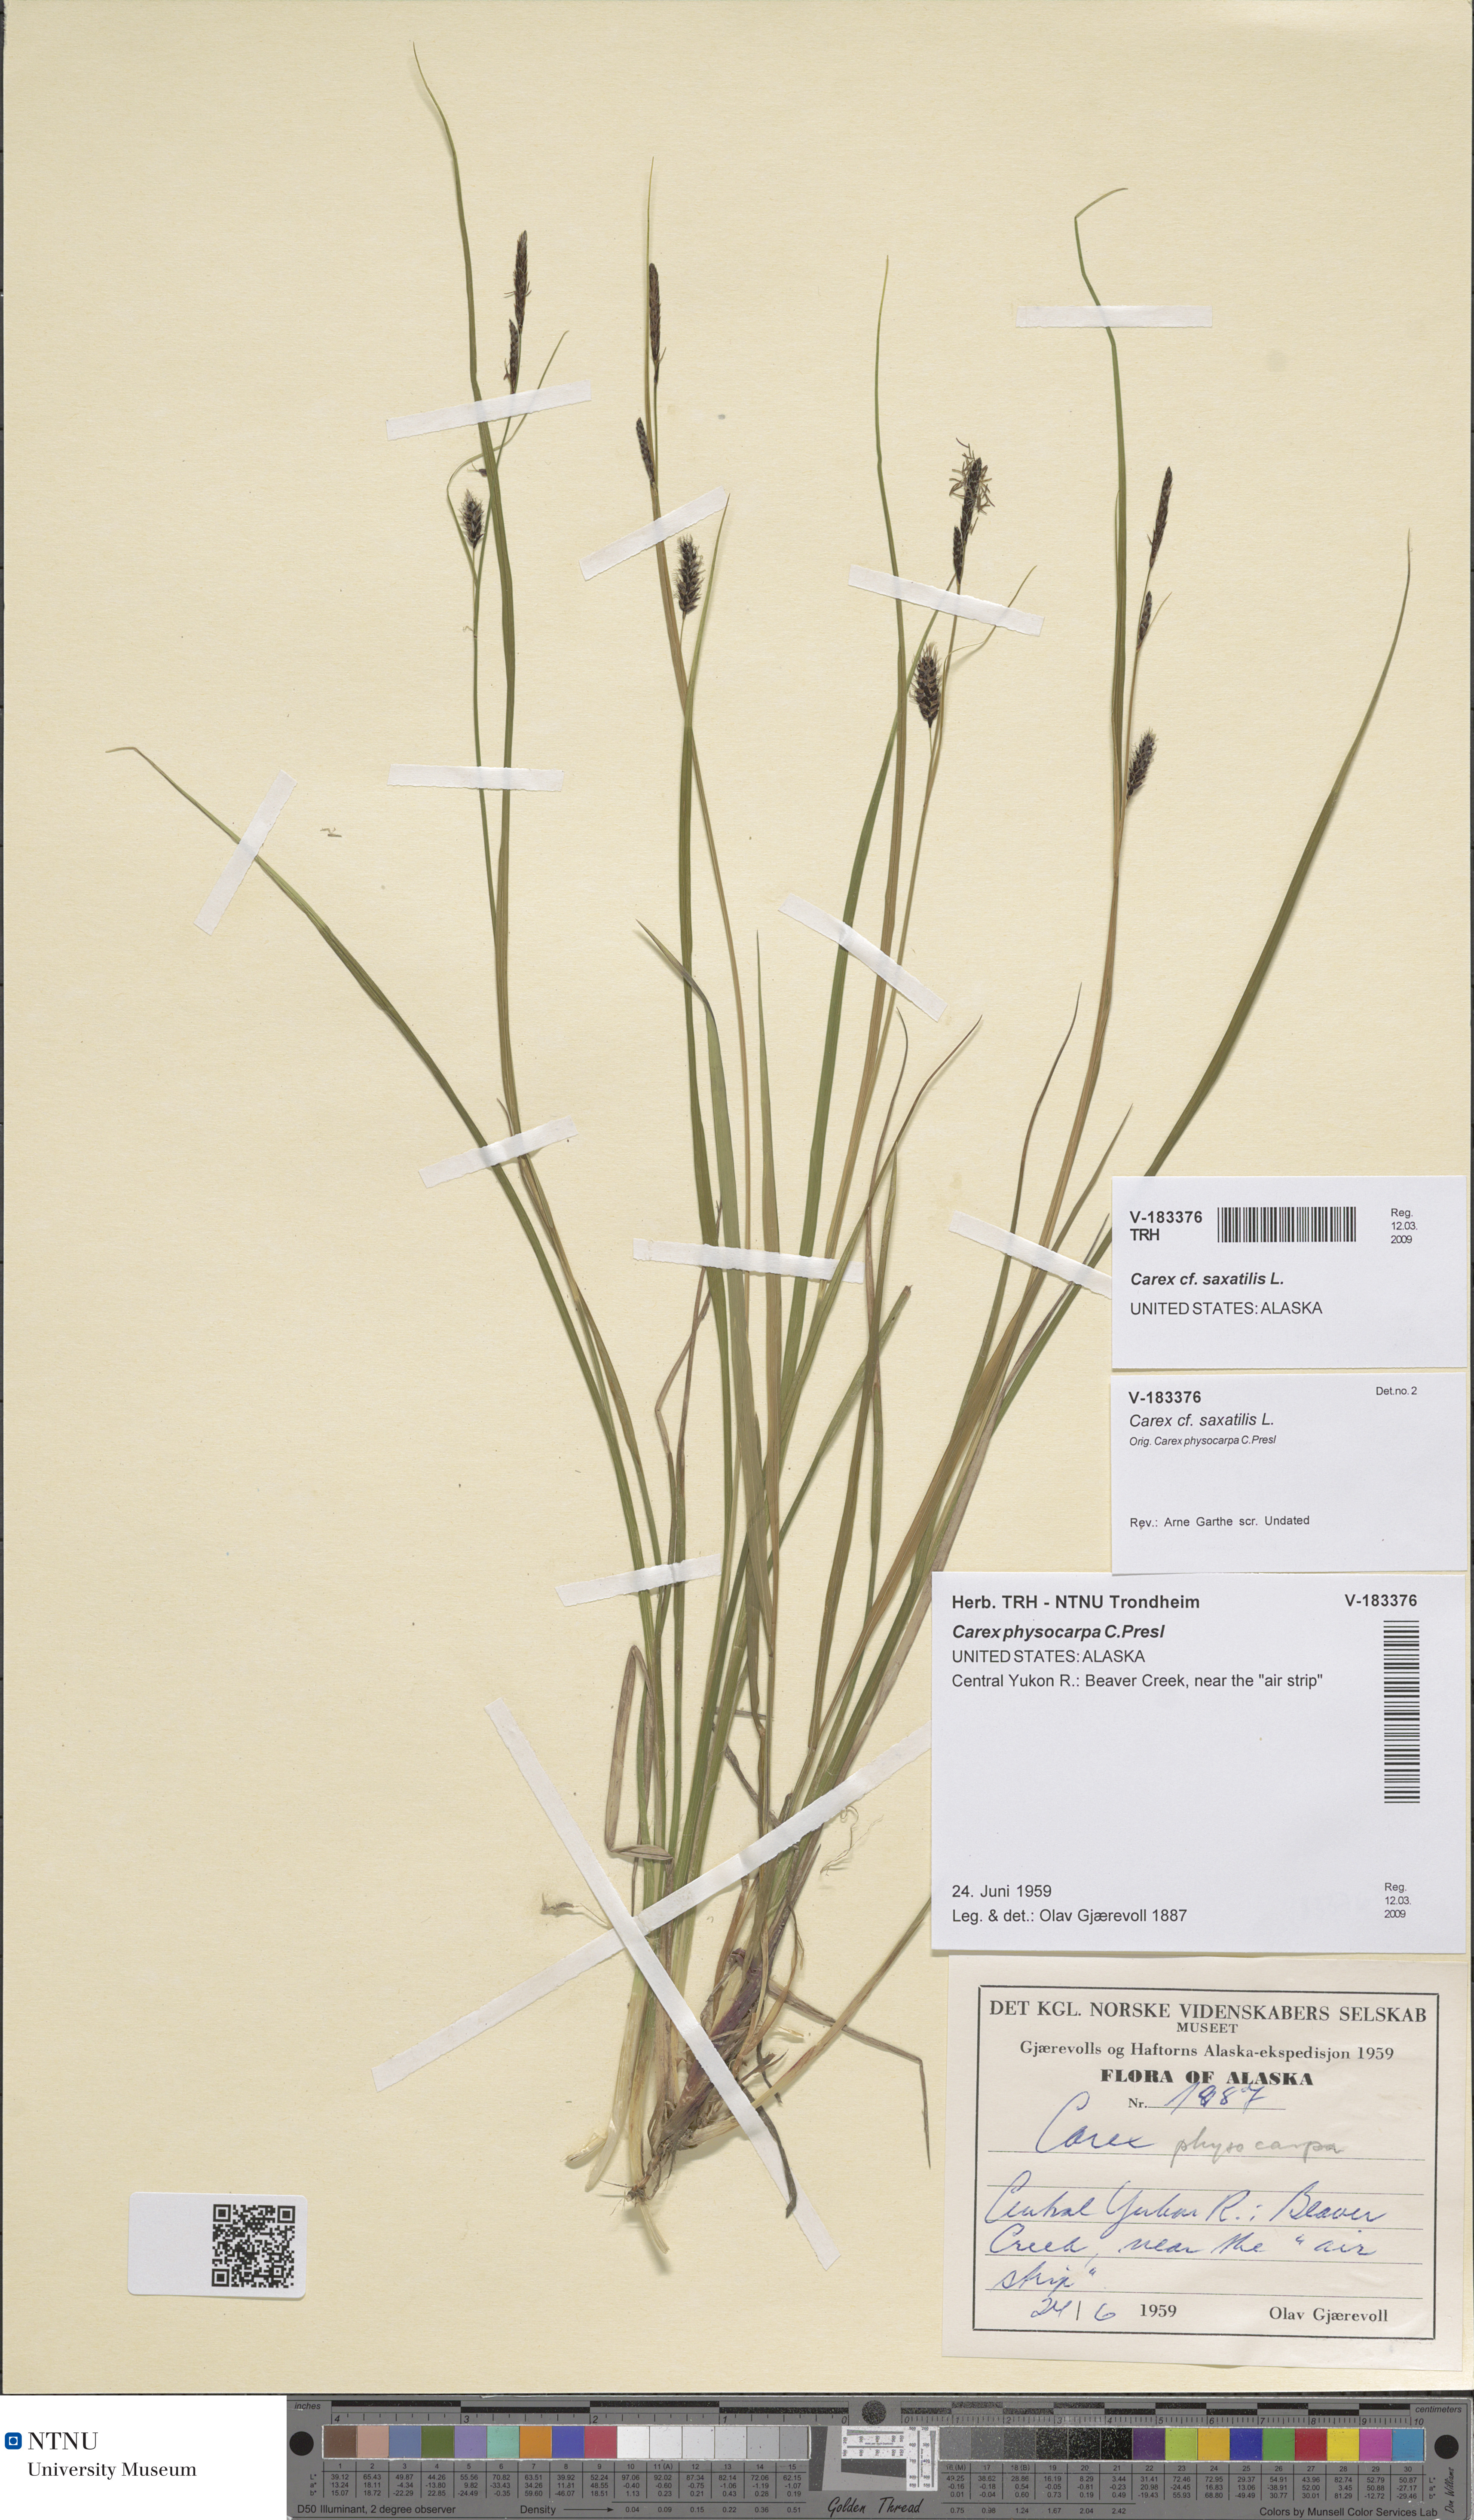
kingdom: Plantae
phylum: Tracheophyta
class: Liliopsida
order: Poales
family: Cyperaceae
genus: Carex
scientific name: Carex saxatilis
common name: Russet sedge
